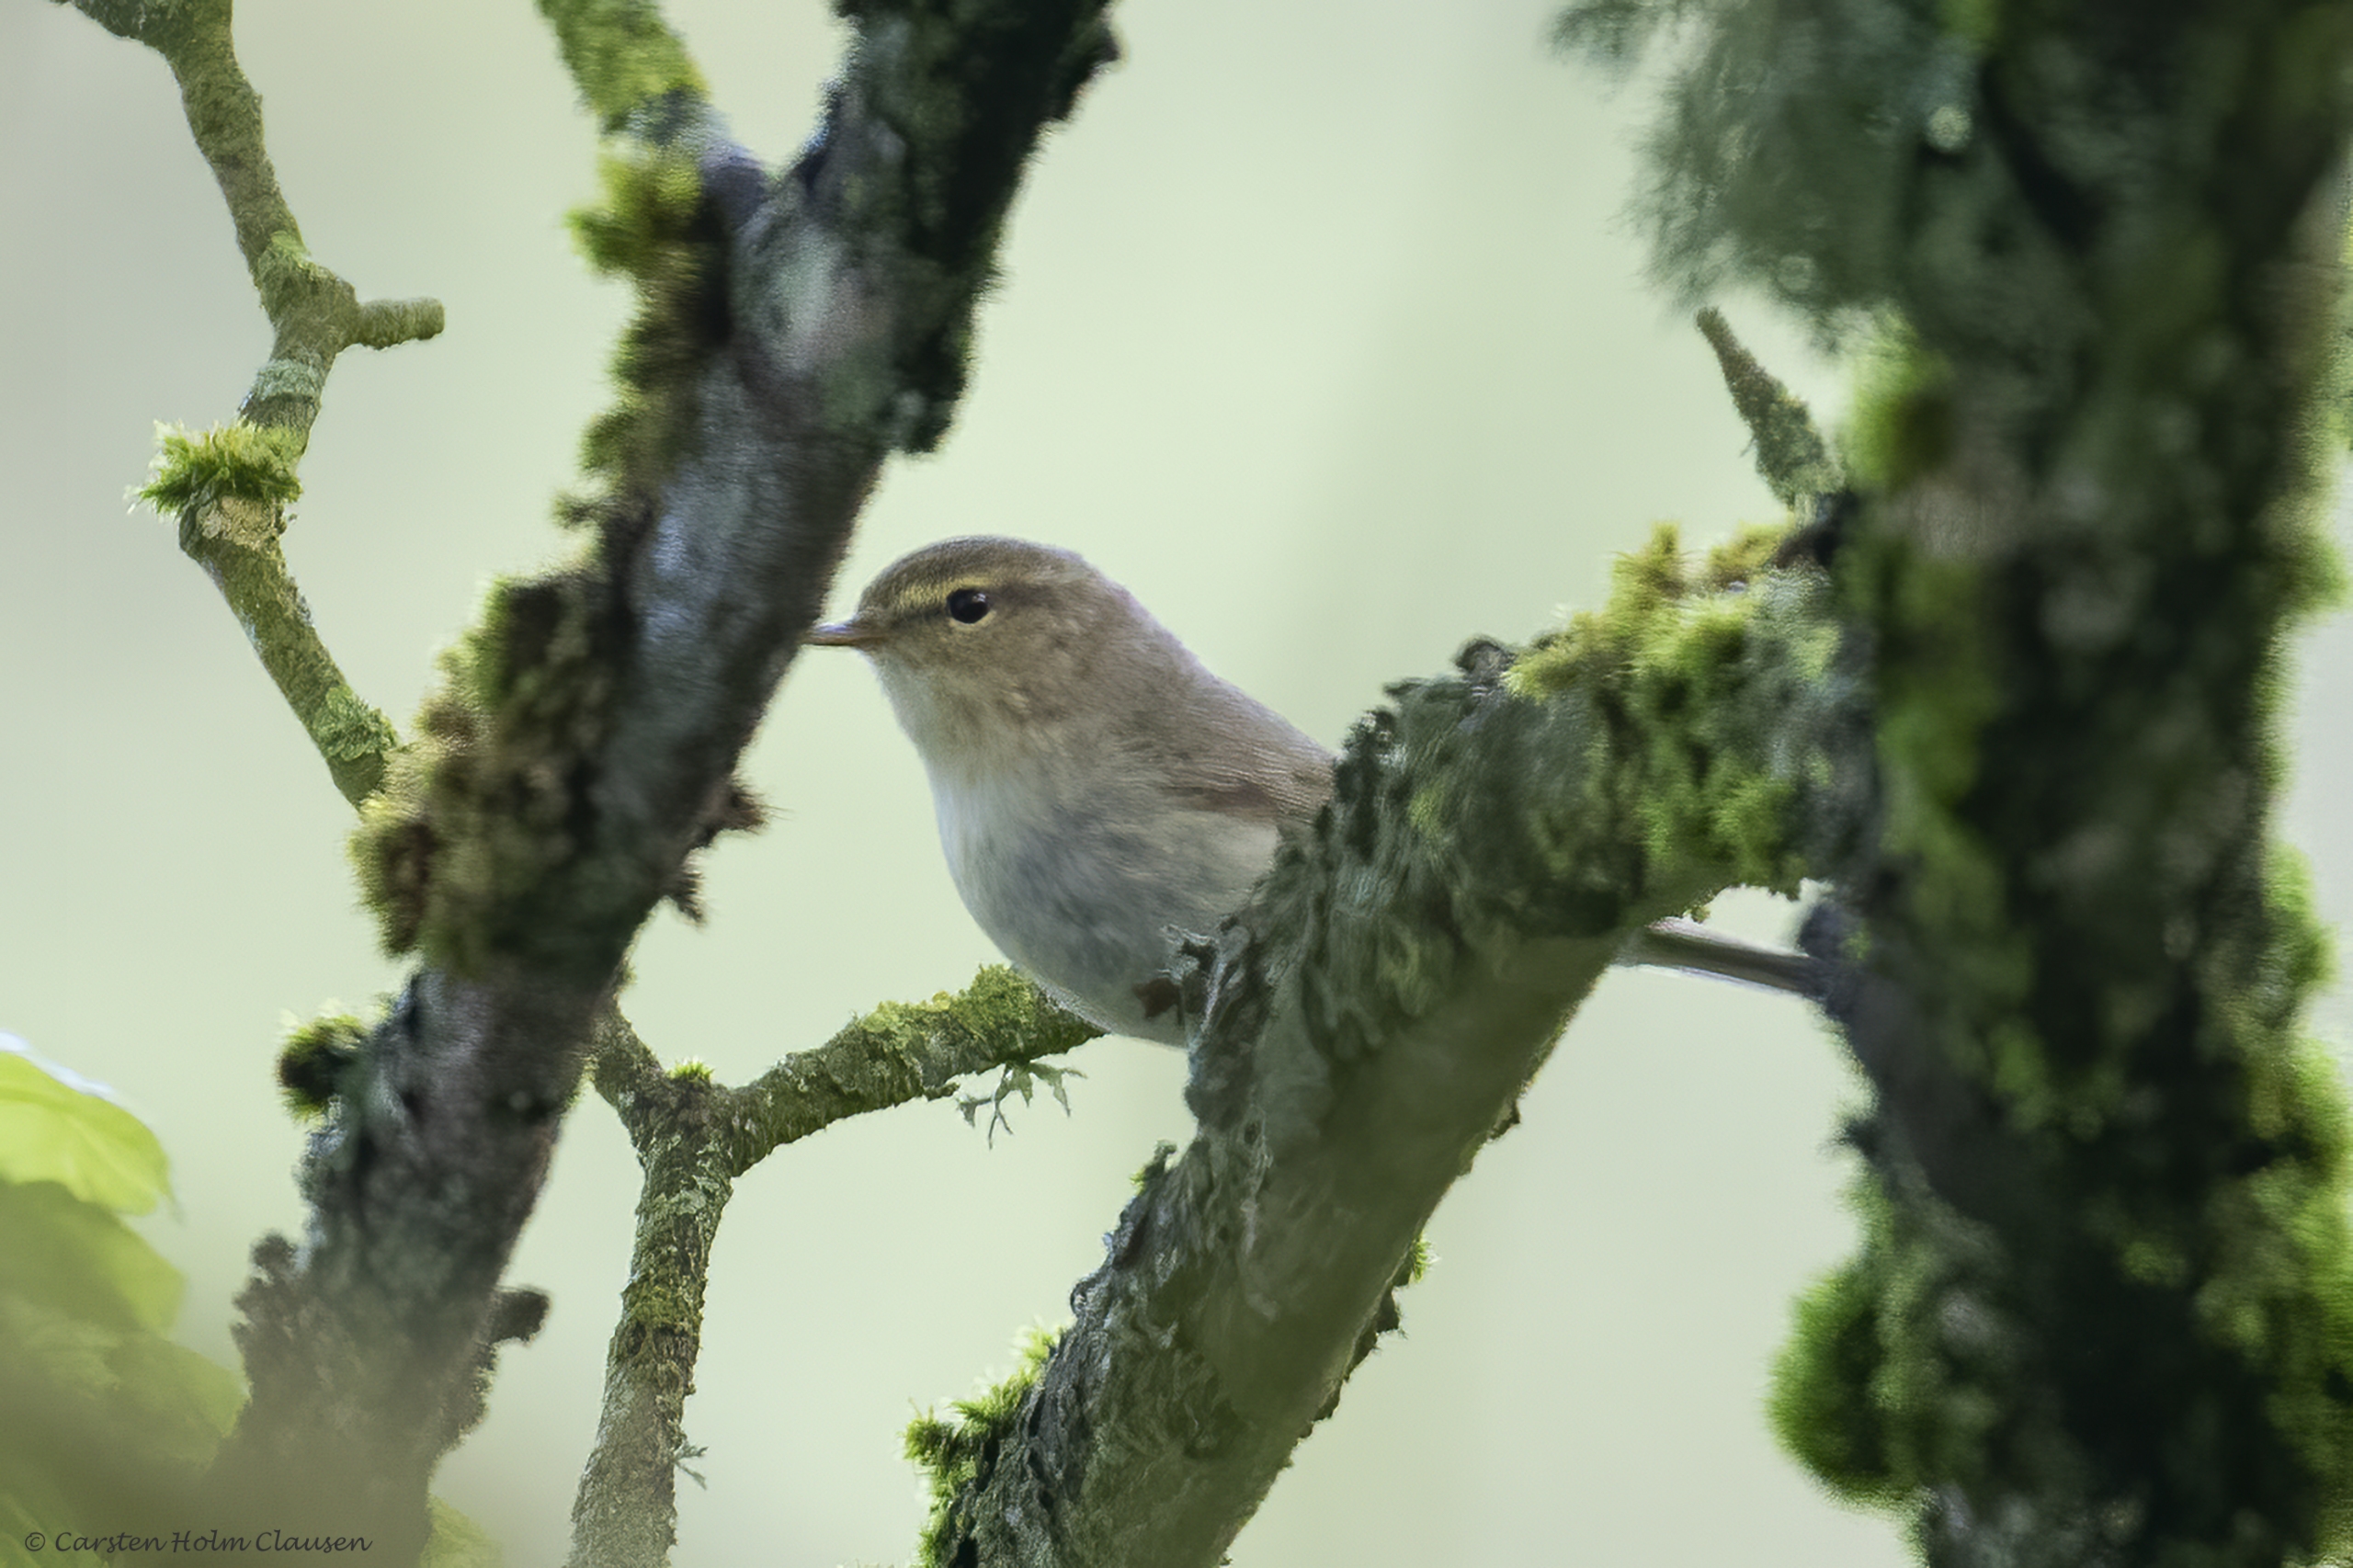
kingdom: Animalia
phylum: Chordata
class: Aves
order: Passeriformes
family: Phylloscopidae
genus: Phylloscopus
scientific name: Phylloscopus trochilus
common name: Løvsanger
